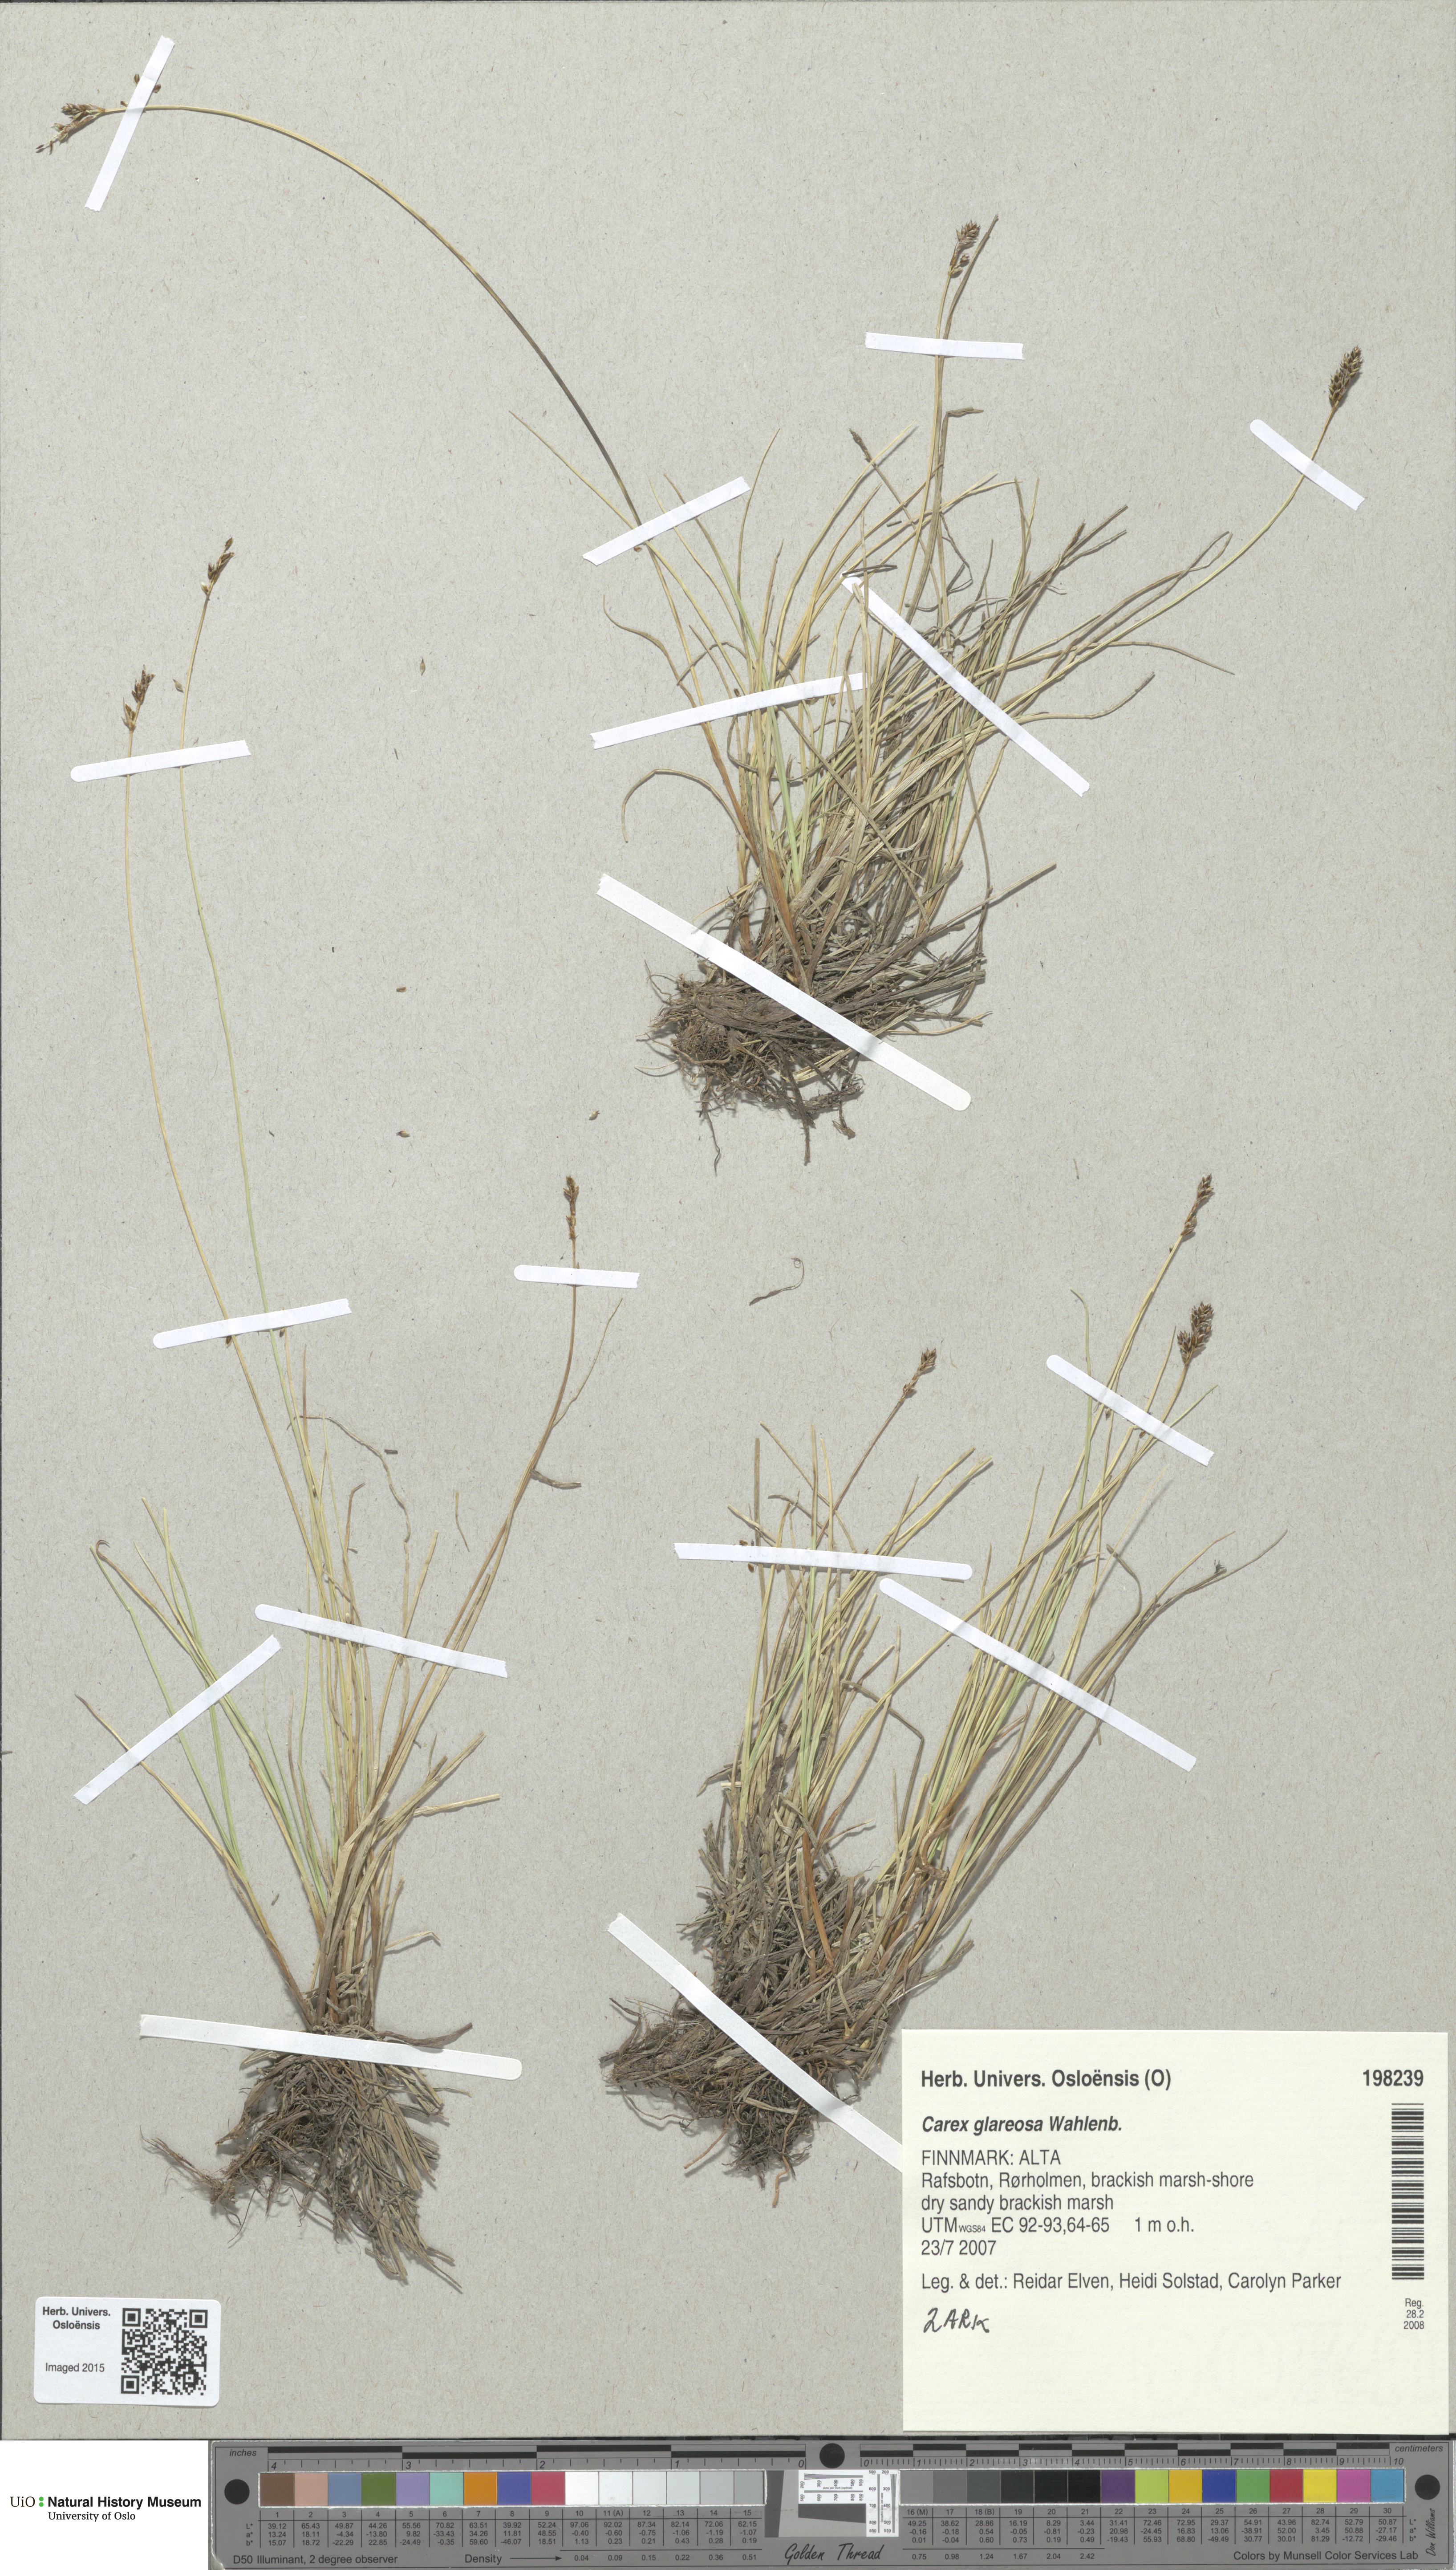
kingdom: Plantae
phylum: Tracheophyta
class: Liliopsida
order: Poales
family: Cyperaceae
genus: Carex
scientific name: Carex glareosa
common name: Clustered sedge
